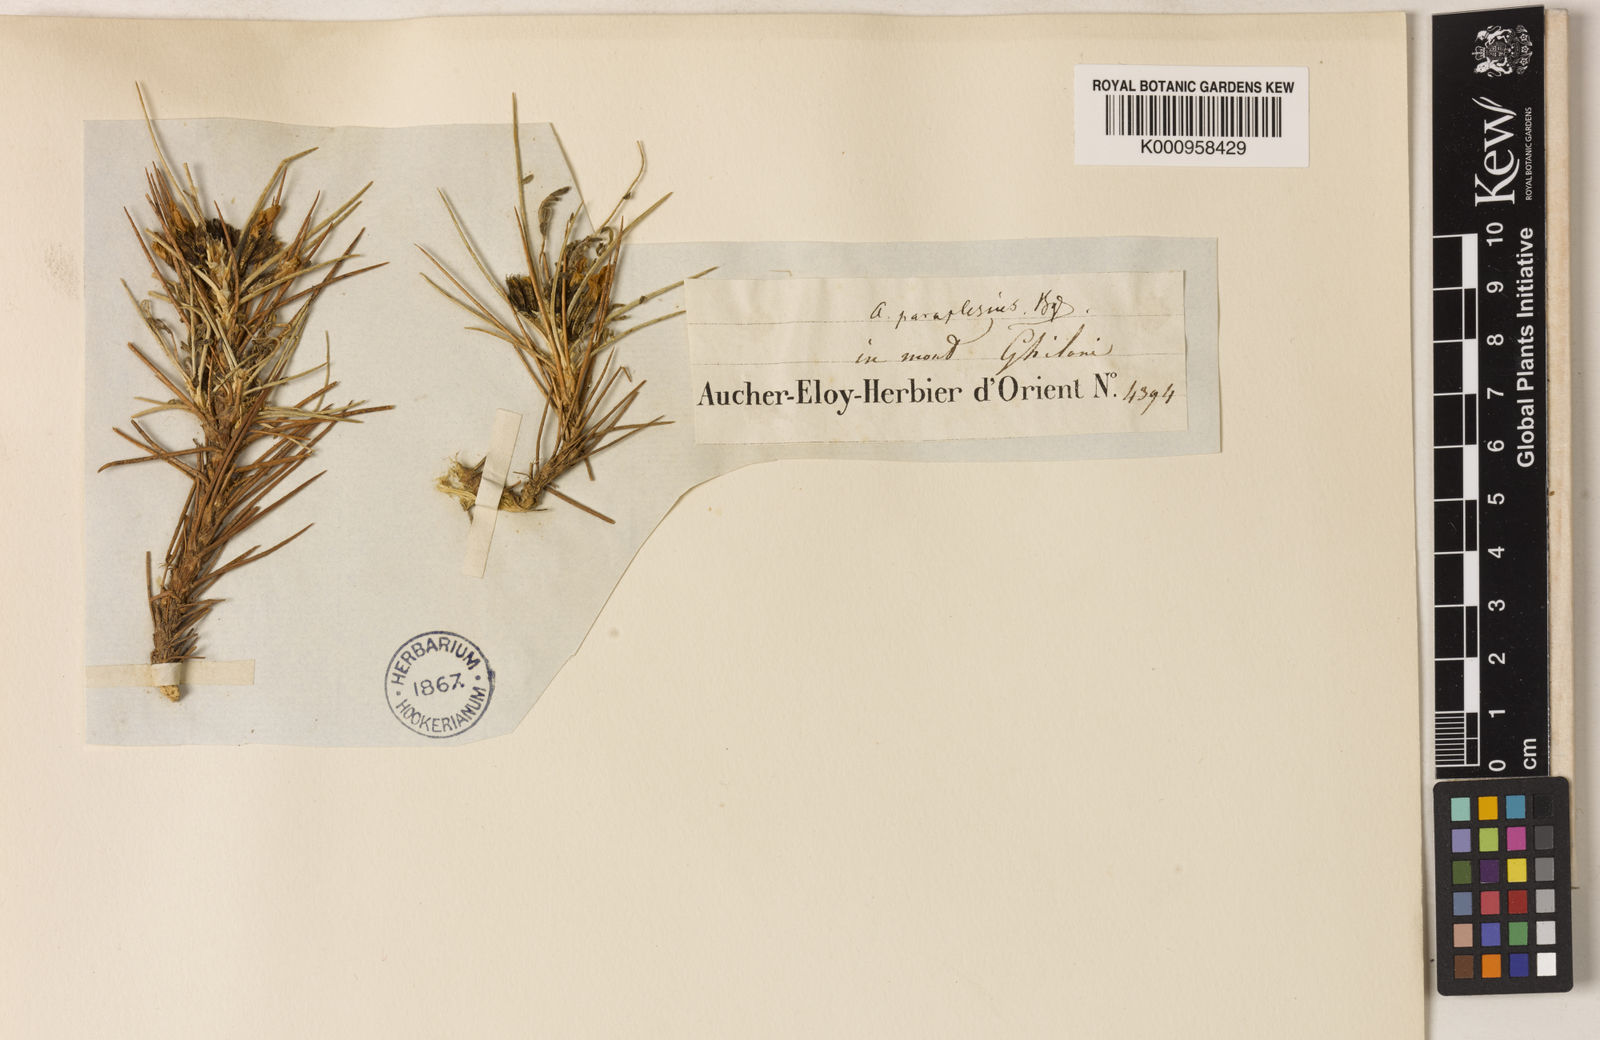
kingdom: Plantae
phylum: Tracheophyta
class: Magnoliopsida
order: Fabales
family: Fabaceae
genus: Astragalus
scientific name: Astragalus iodotropis
